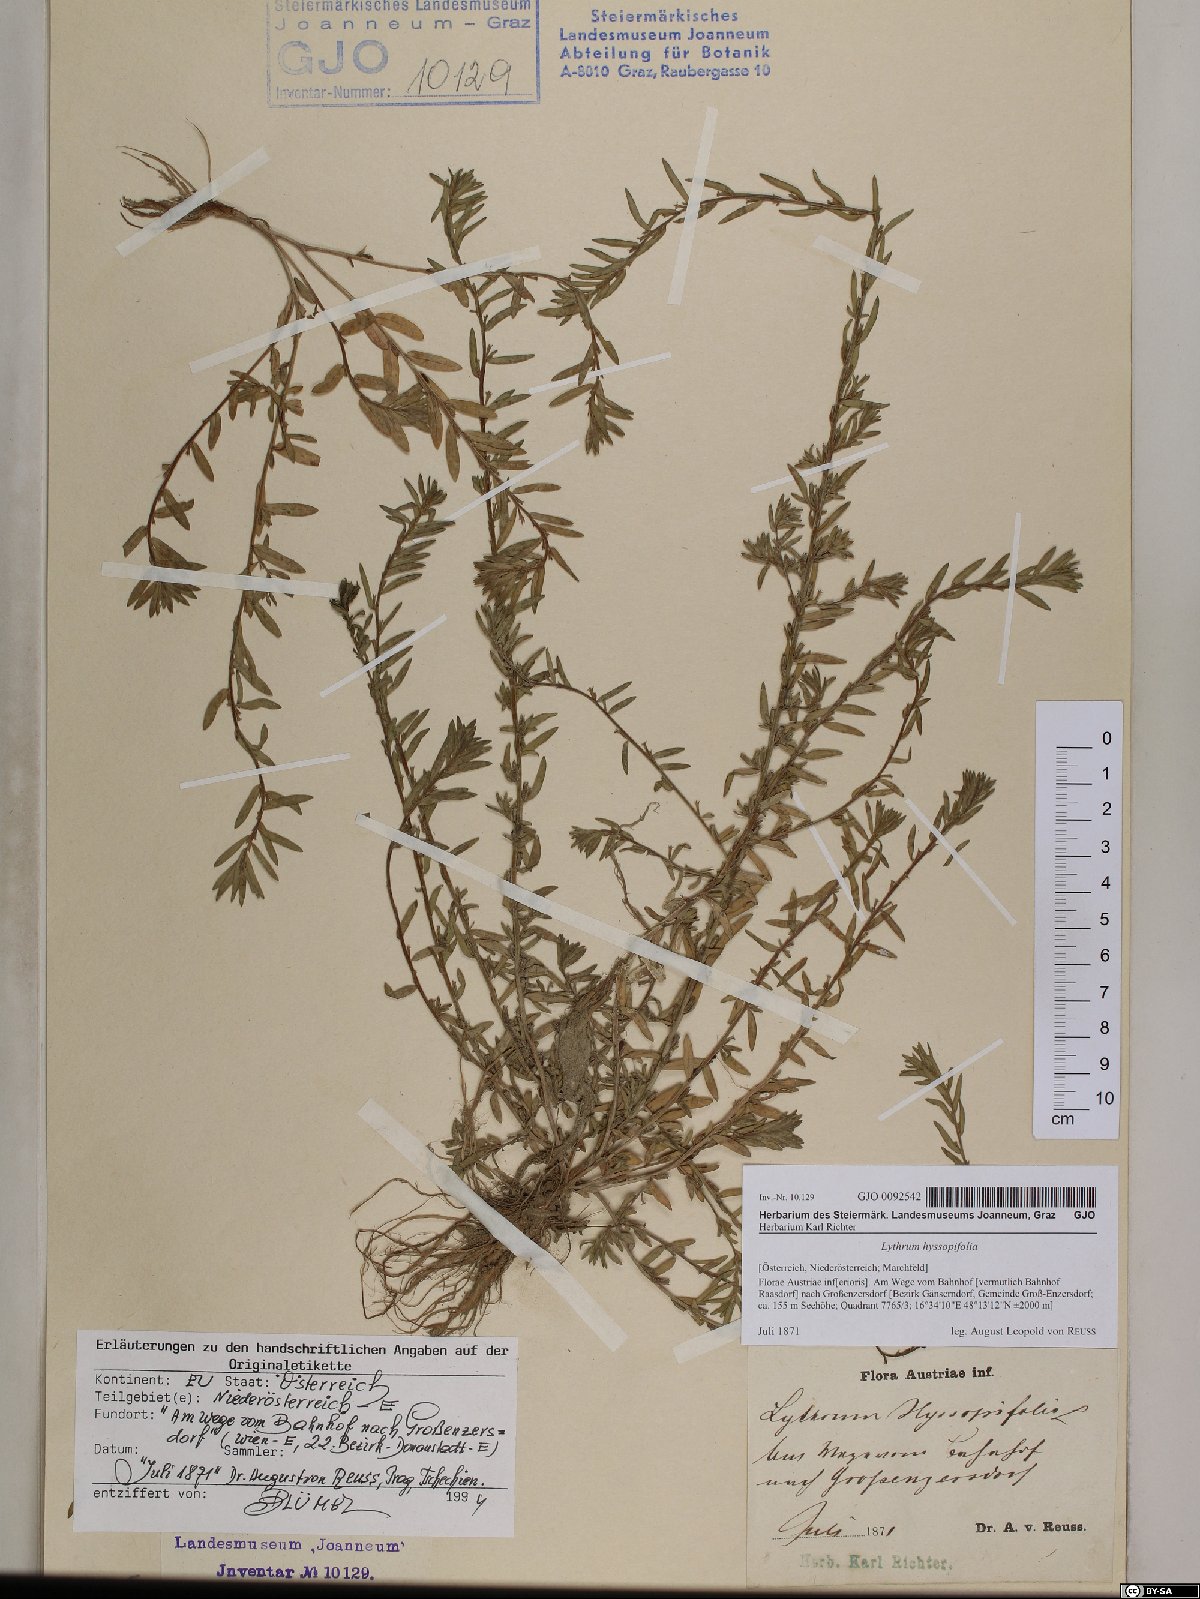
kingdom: Plantae
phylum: Tracheophyta
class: Magnoliopsida
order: Myrtales
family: Lythraceae
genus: Lythrum
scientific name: Lythrum hyssopifolia
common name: Grass-poly
